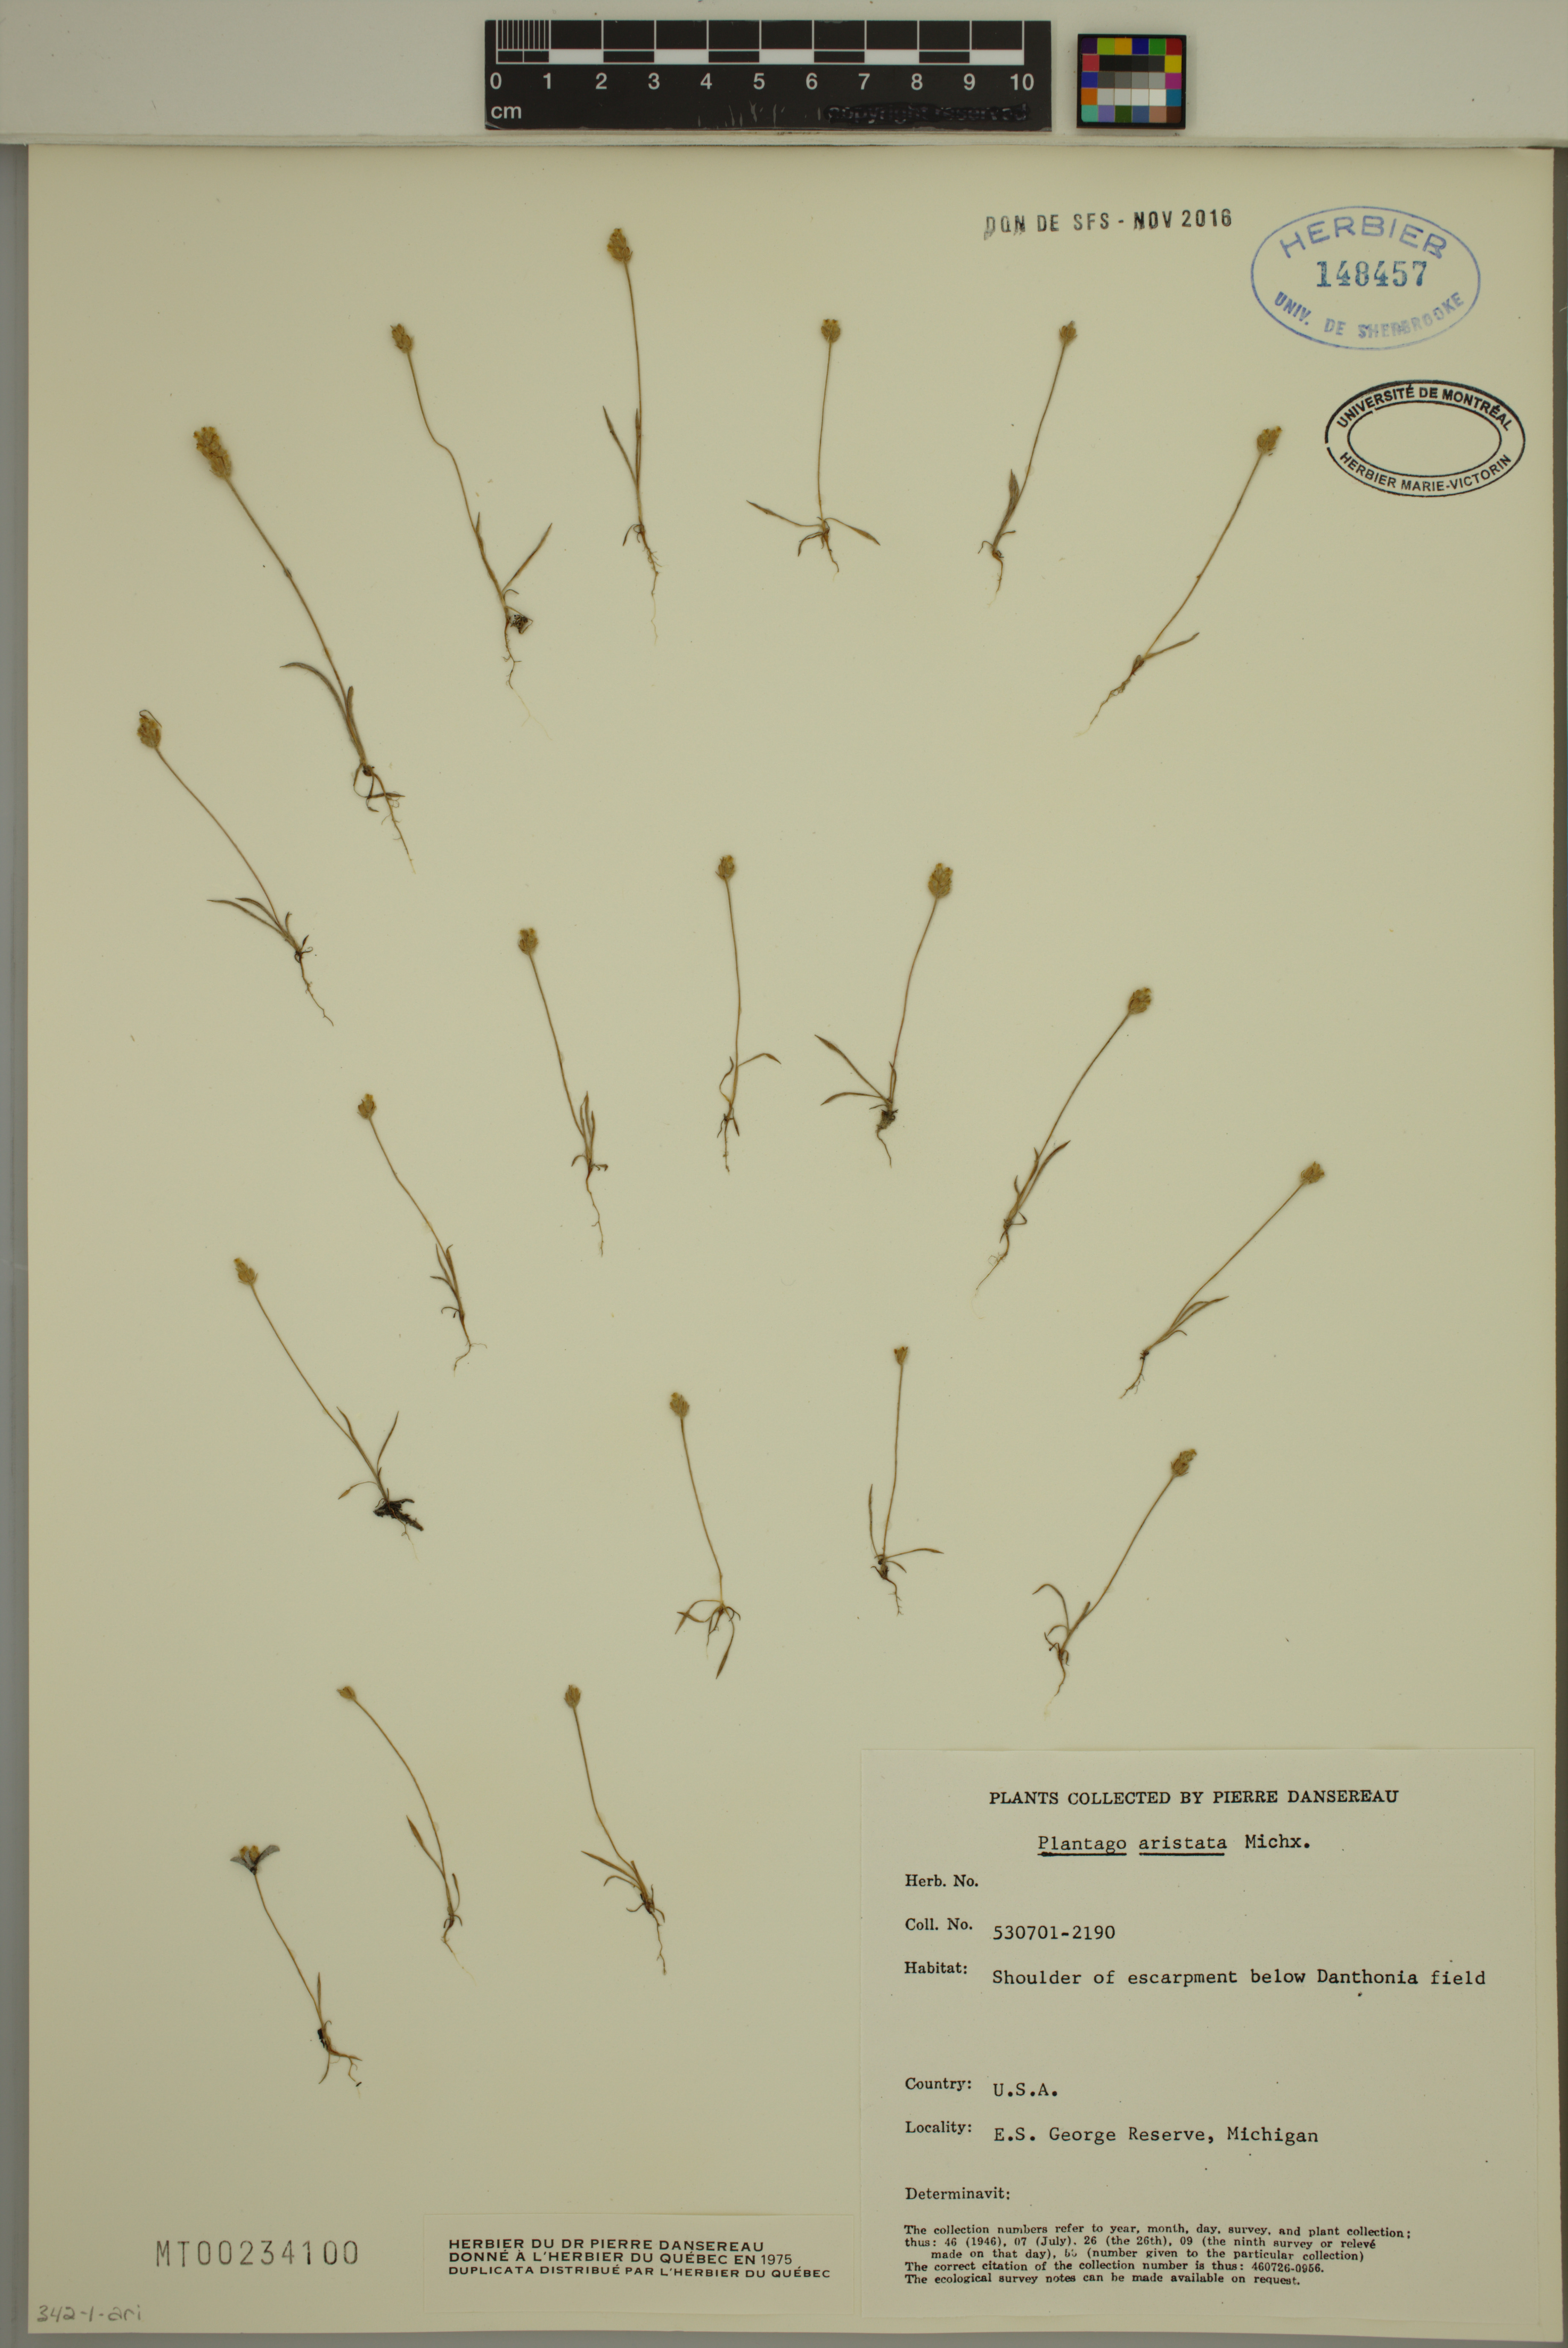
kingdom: Plantae
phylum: Tracheophyta
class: Magnoliopsida
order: Lamiales
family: Plantaginaceae
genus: Plantago
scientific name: Plantago aristata
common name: Bracted plantain
